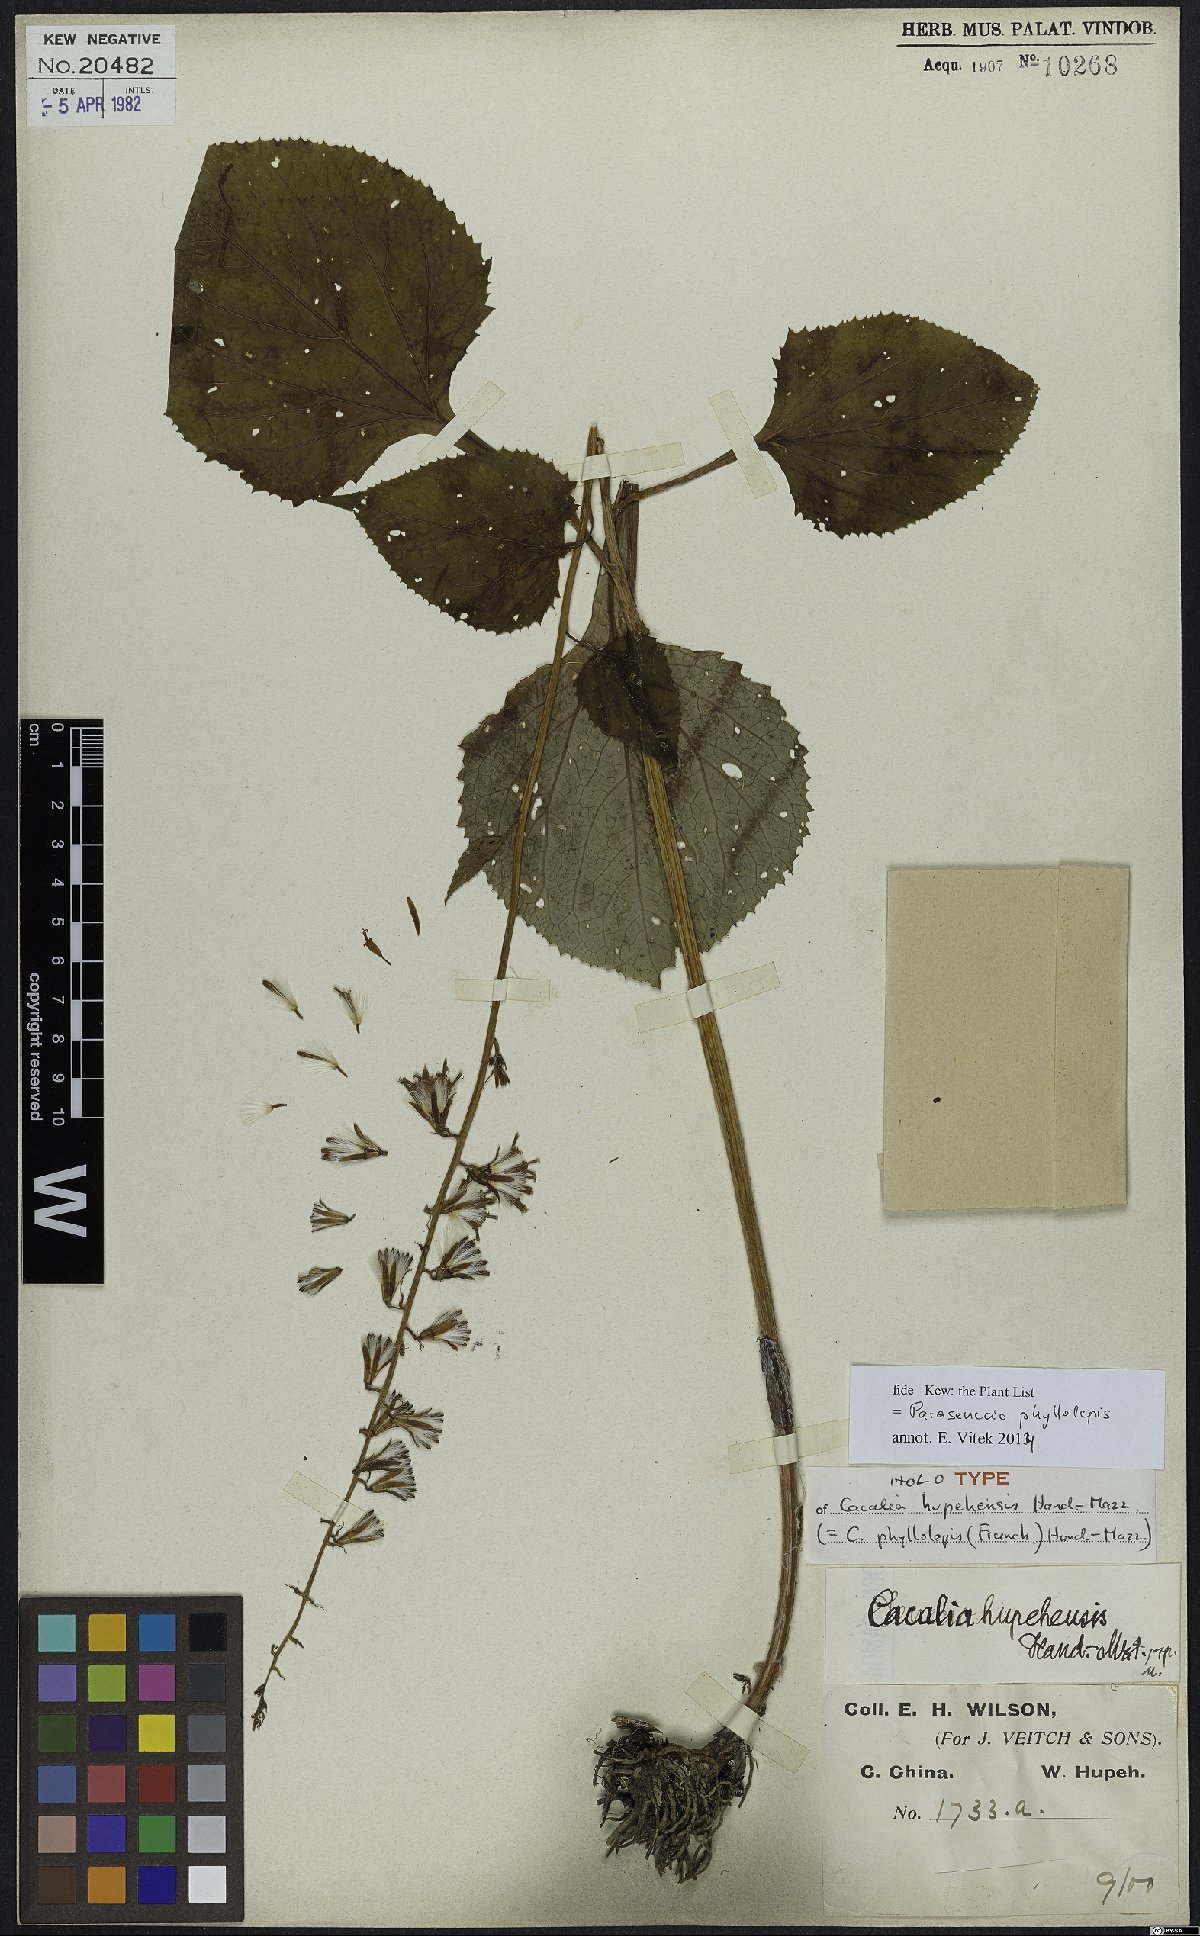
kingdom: Plantae
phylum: Tracheophyta
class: Magnoliopsida
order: Asterales
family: Asteraceae
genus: Parasenecio
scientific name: Parasenecio phyllolepis
